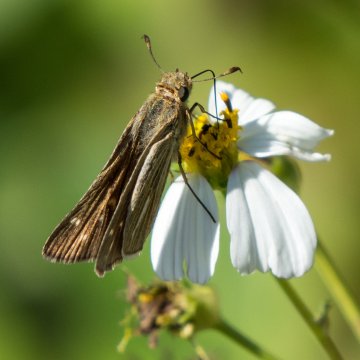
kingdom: Animalia
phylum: Arthropoda
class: Insecta
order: Lepidoptera
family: Hesperiidae
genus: Panoquina
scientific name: Panoquina panoquin
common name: Salt Marsh Skipper
